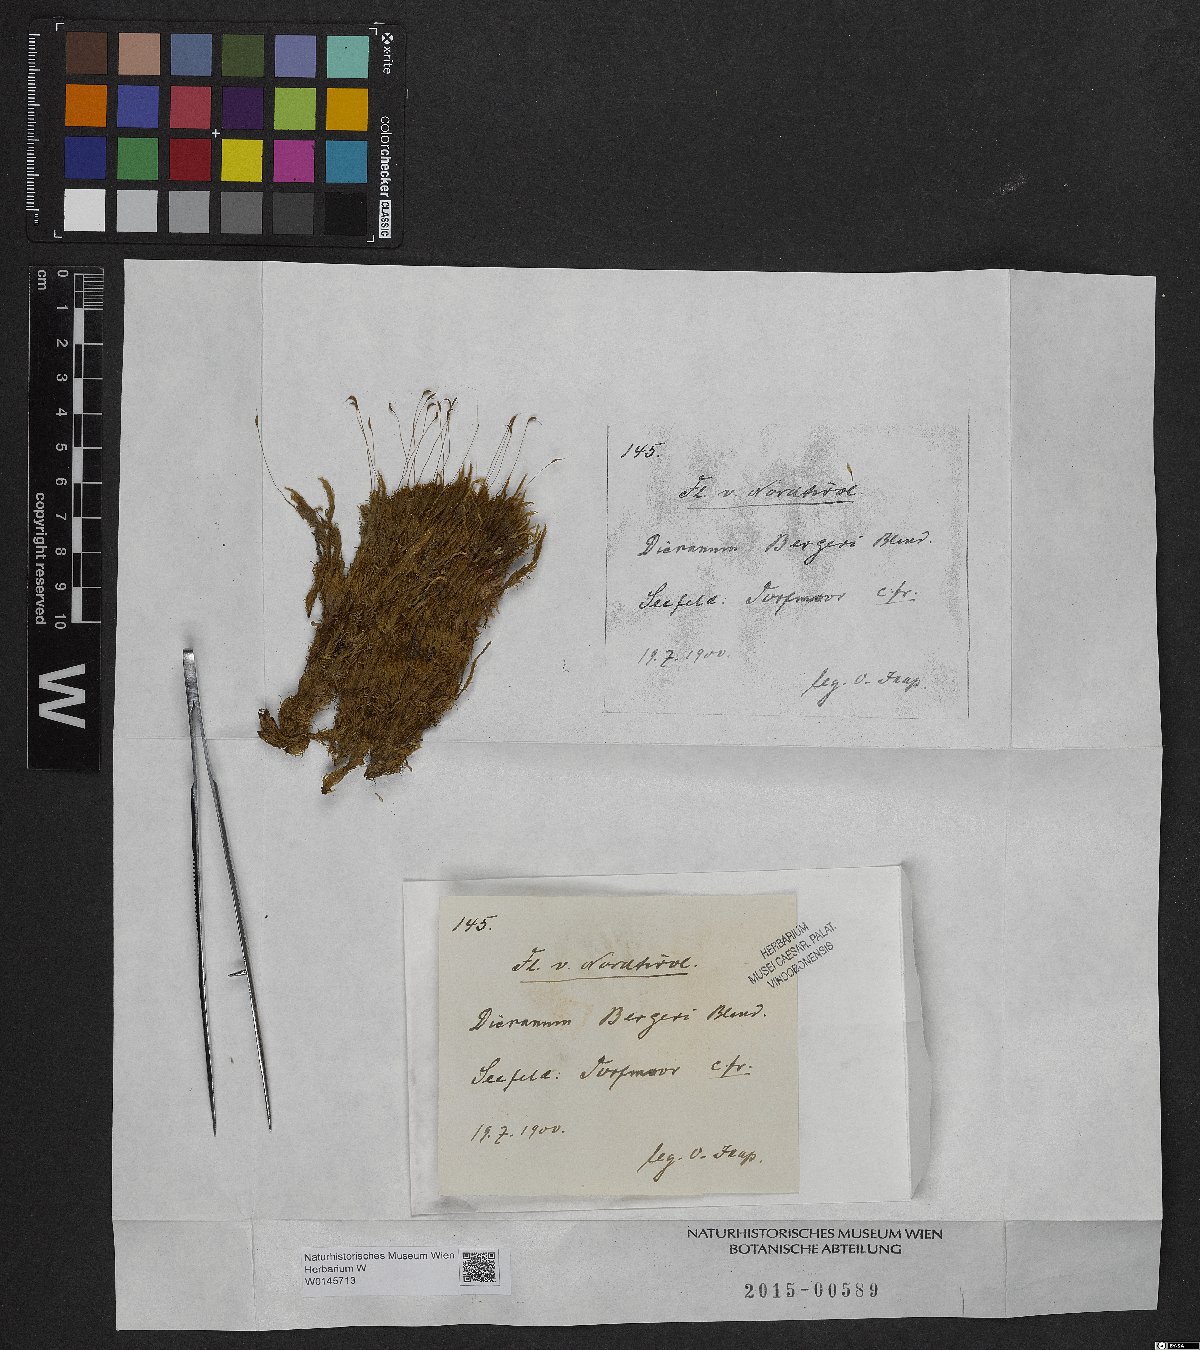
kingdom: Plantae
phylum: Bryophyta
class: Bryopsida
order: Dicranales
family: Dicranaceae
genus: Dicranum
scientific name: Dicranum undulatum
